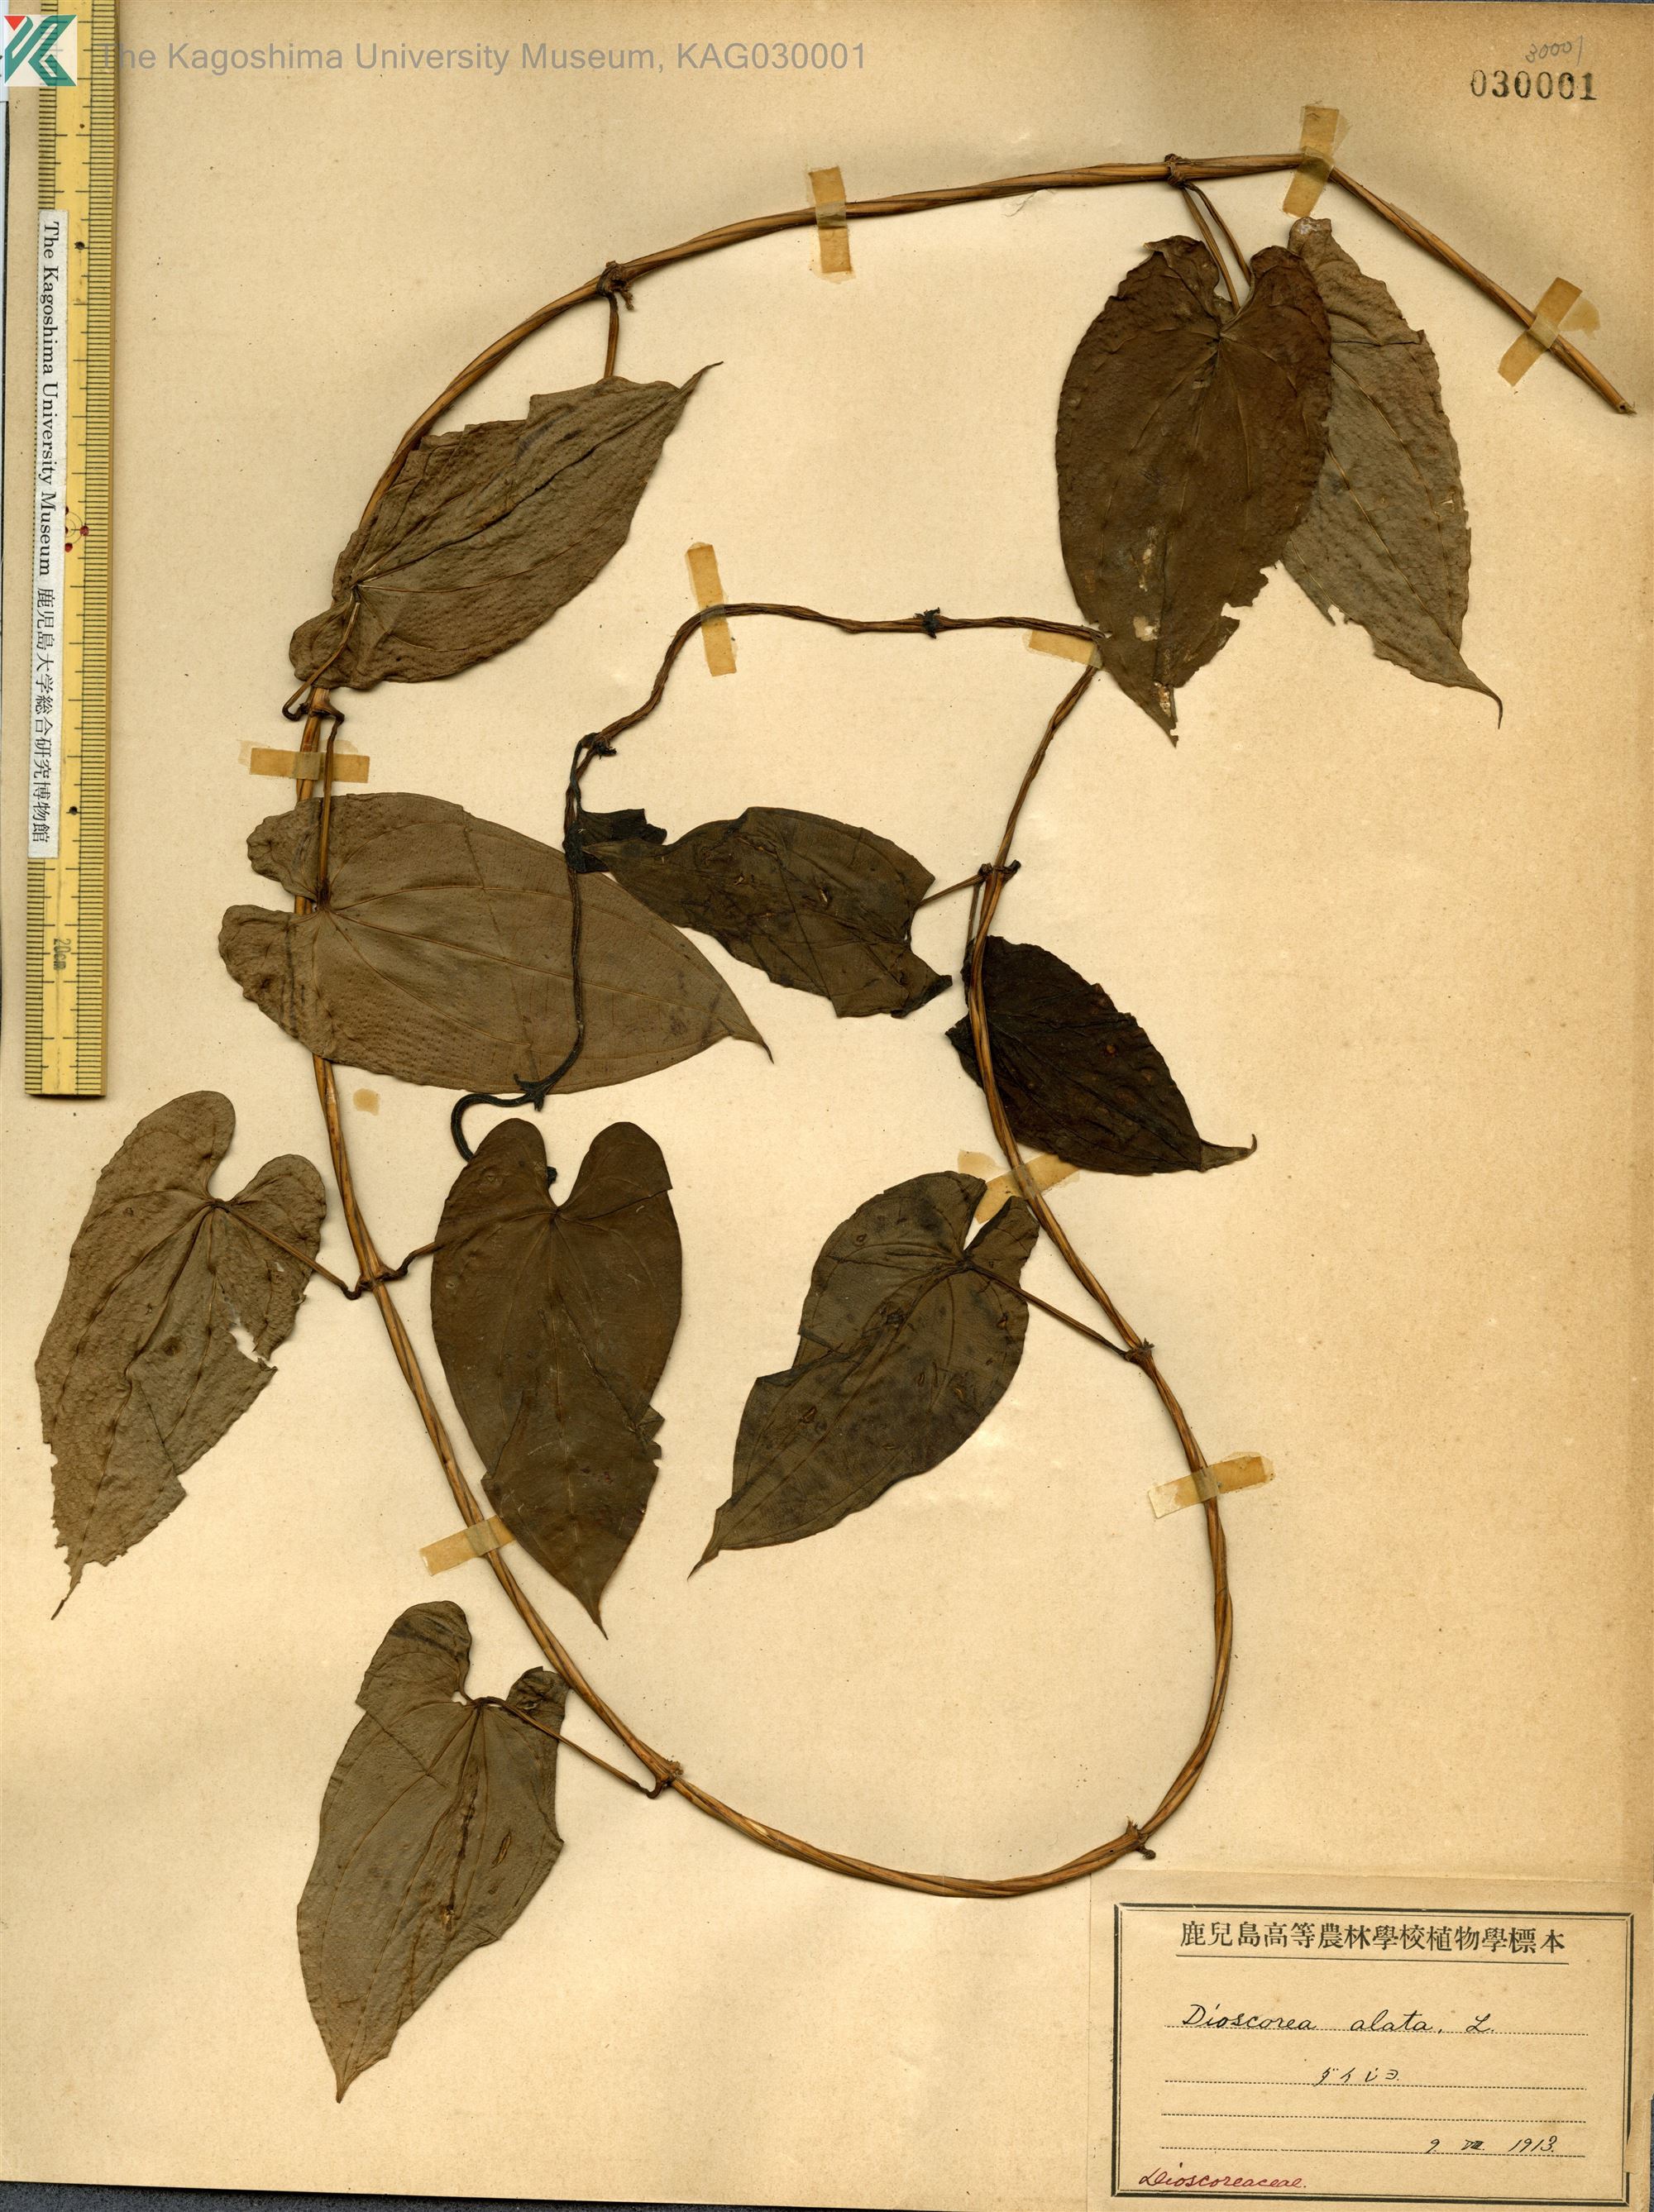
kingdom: Plantae
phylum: Tracheophyta
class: Liliopsida
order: Dioscoreales
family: Dioscoreaceae
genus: Dioscorea
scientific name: Dioscorea alata
